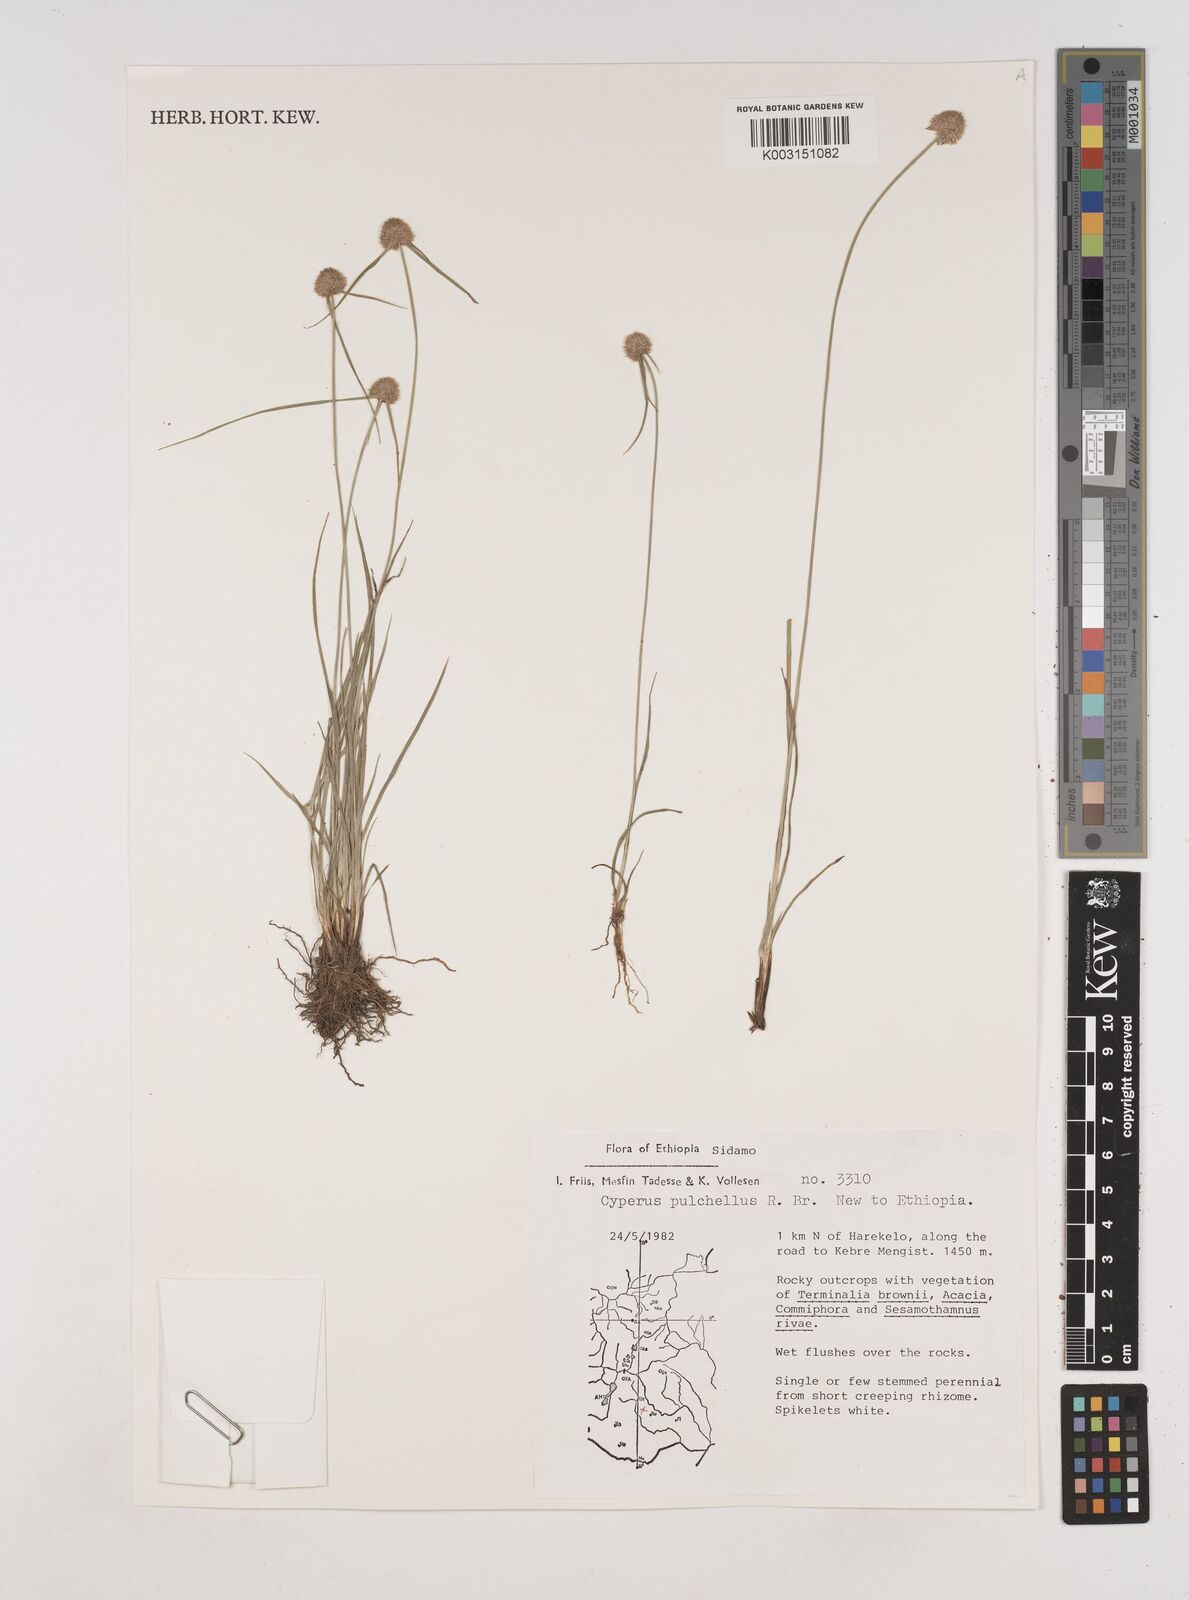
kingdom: Plantae
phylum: Tracheophyta
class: Liliopsida
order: Poales
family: Cyperaceae
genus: Cyperus
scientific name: Cyperus pulchellus
